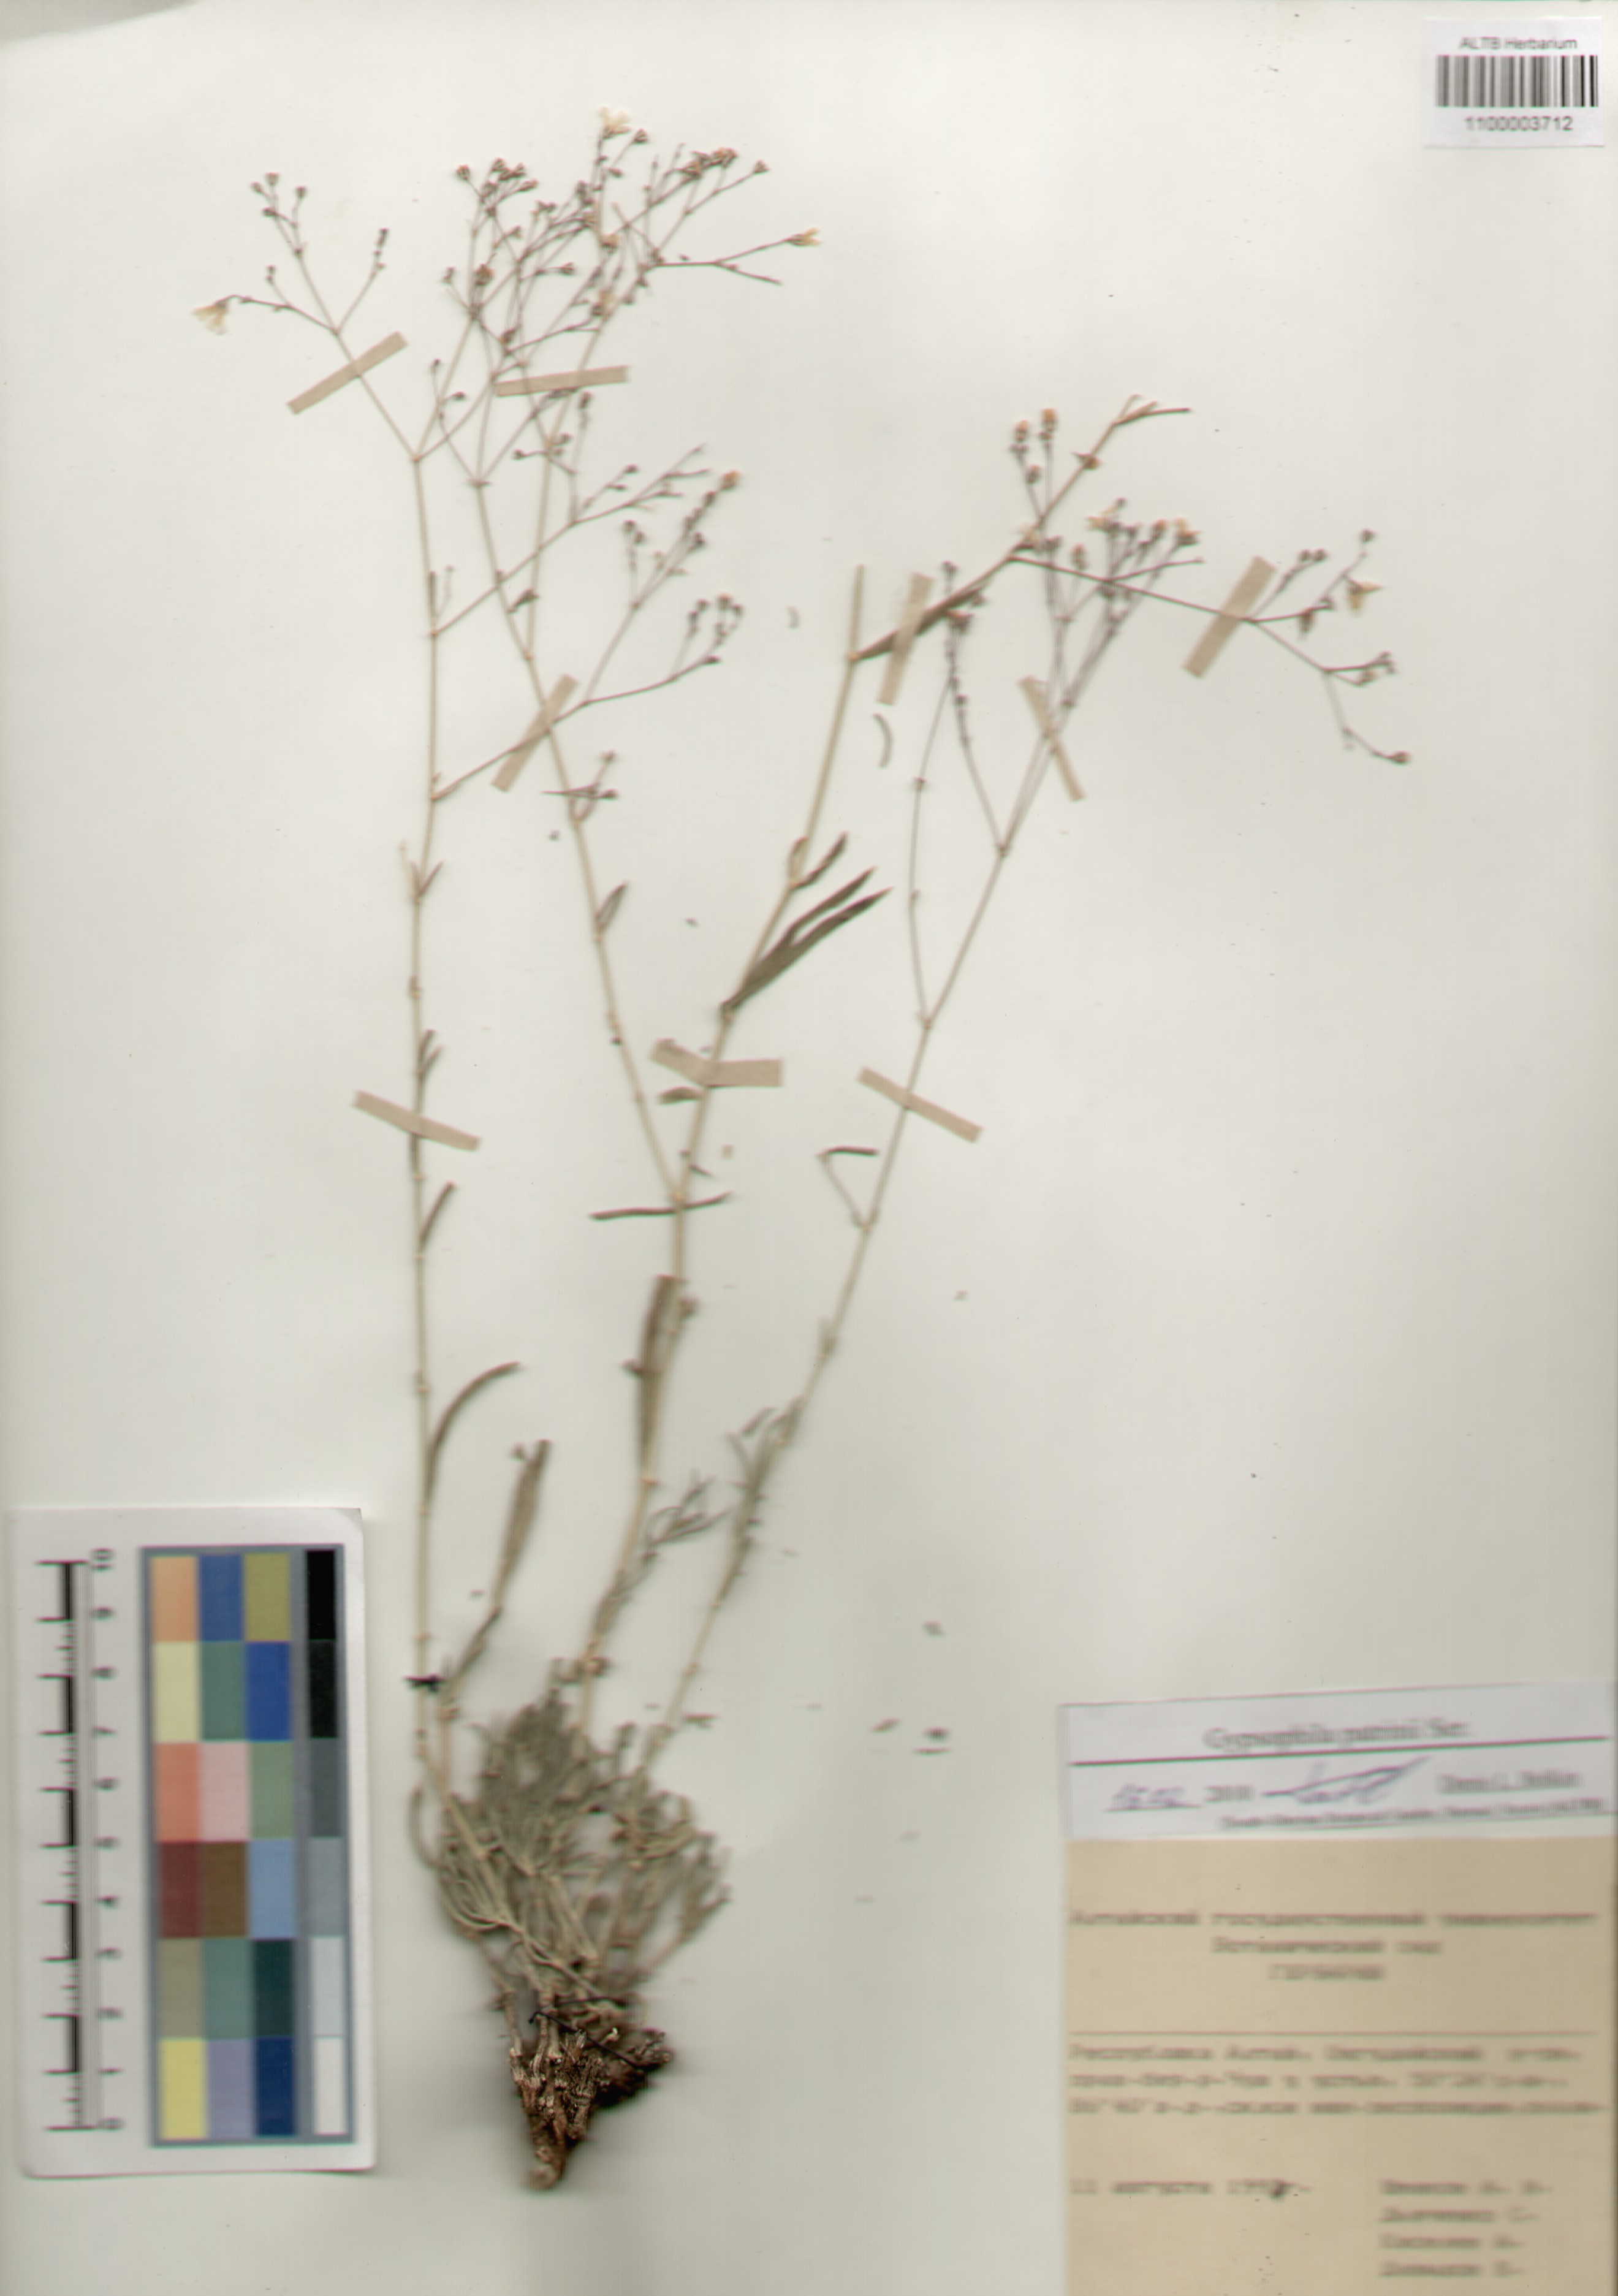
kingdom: Plantae
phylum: Tracheophyta
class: Magnoliopsida
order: Caryophyllales
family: Caryophyllaceae
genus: Gypsophila
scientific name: Gypsophila patrinii
